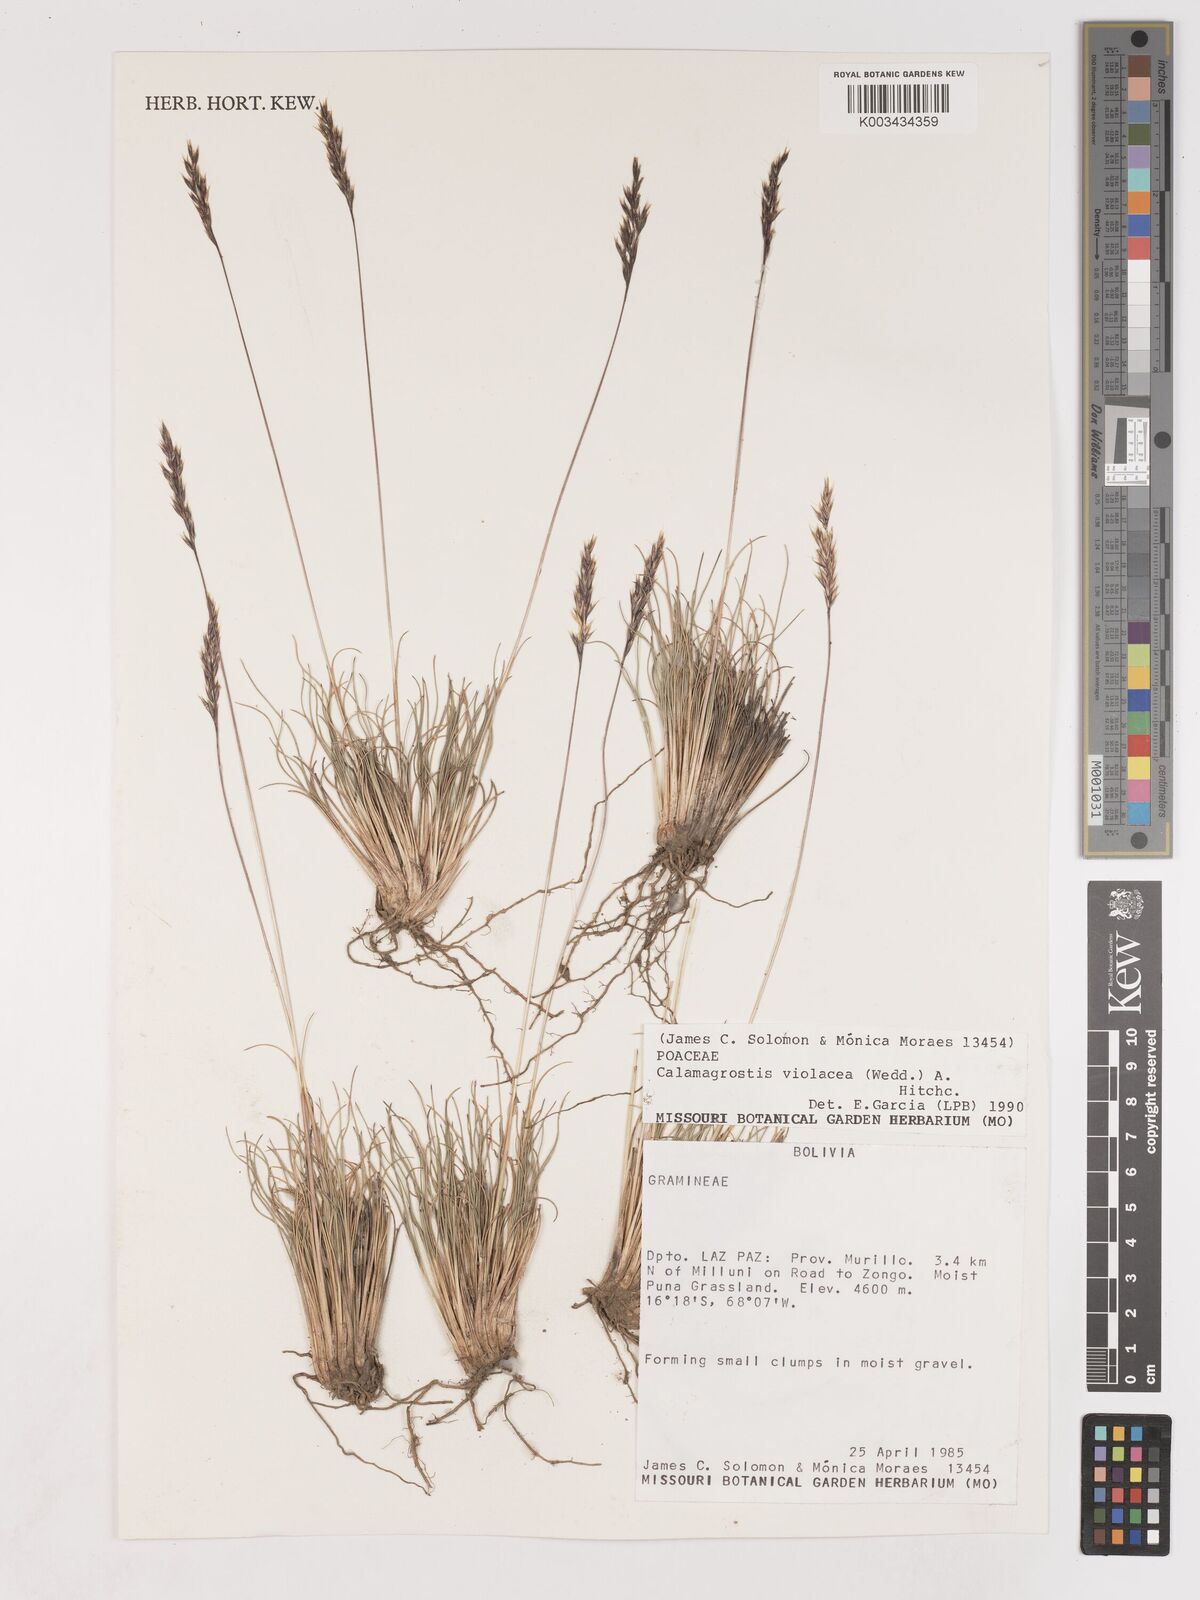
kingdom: Plantae
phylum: Tracheophyta
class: Liliopsida
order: Poales
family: Poaceae
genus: Cinnagrostis
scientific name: Cinnagrostis violacea
